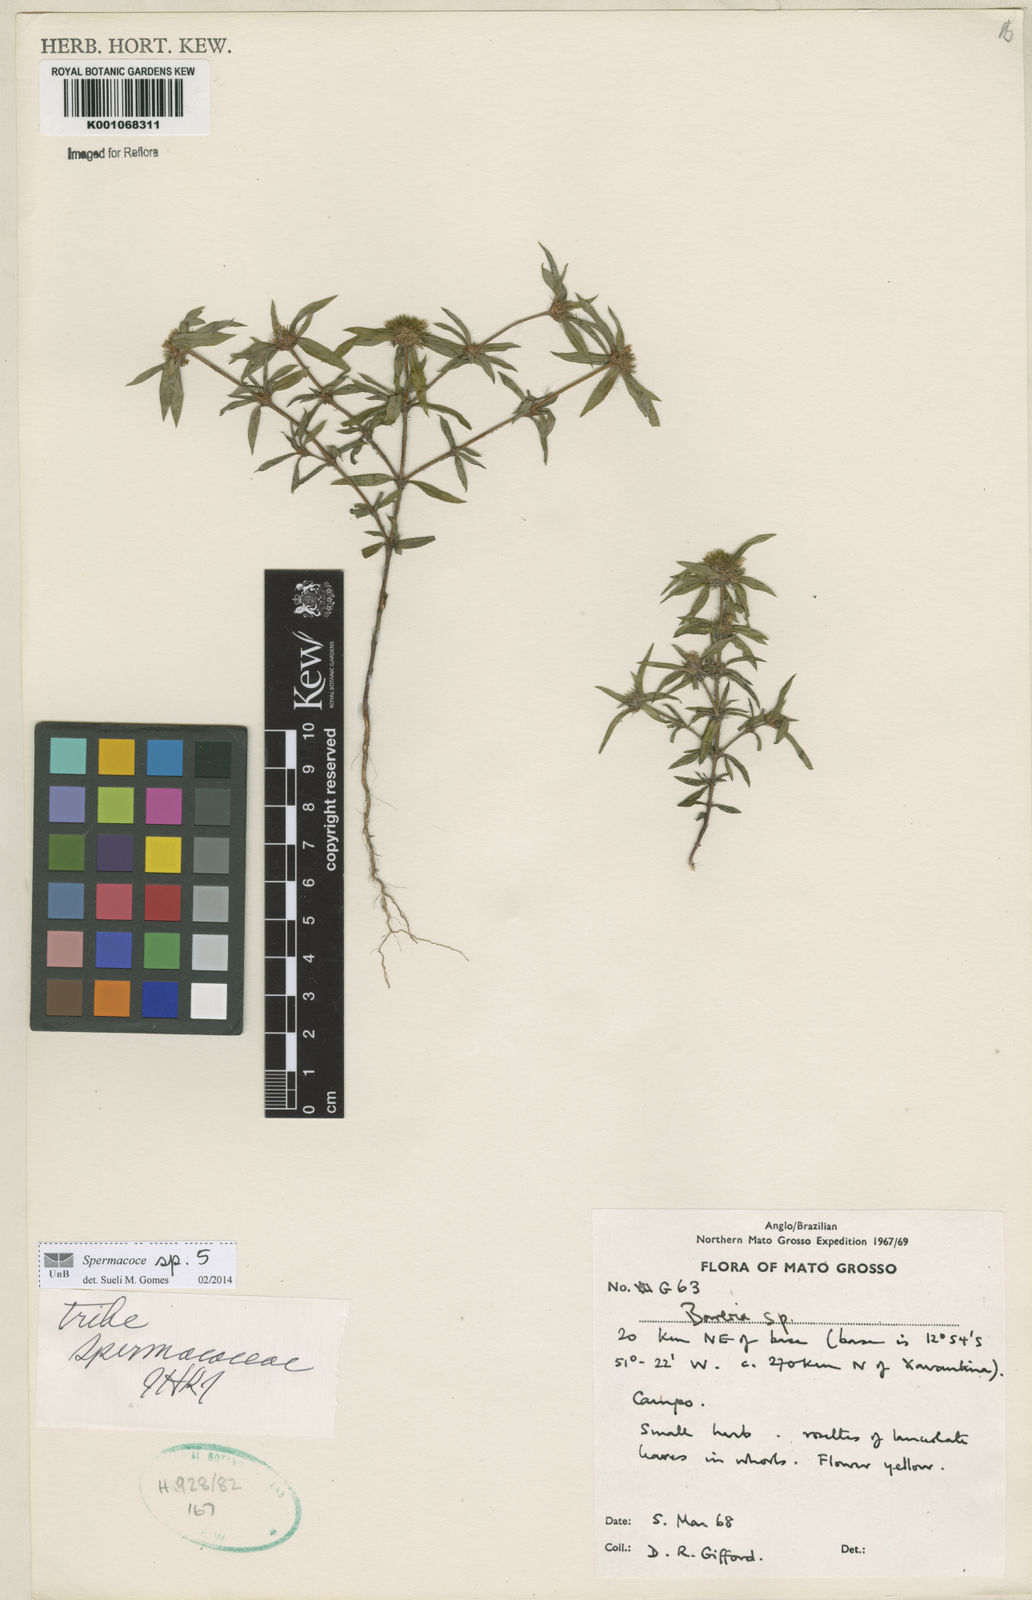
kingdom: Plantae
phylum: Tracheophyta
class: Magnoliopsida
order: Gentianales
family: Rubiaceae
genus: Spermacoce
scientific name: Spermacoce
